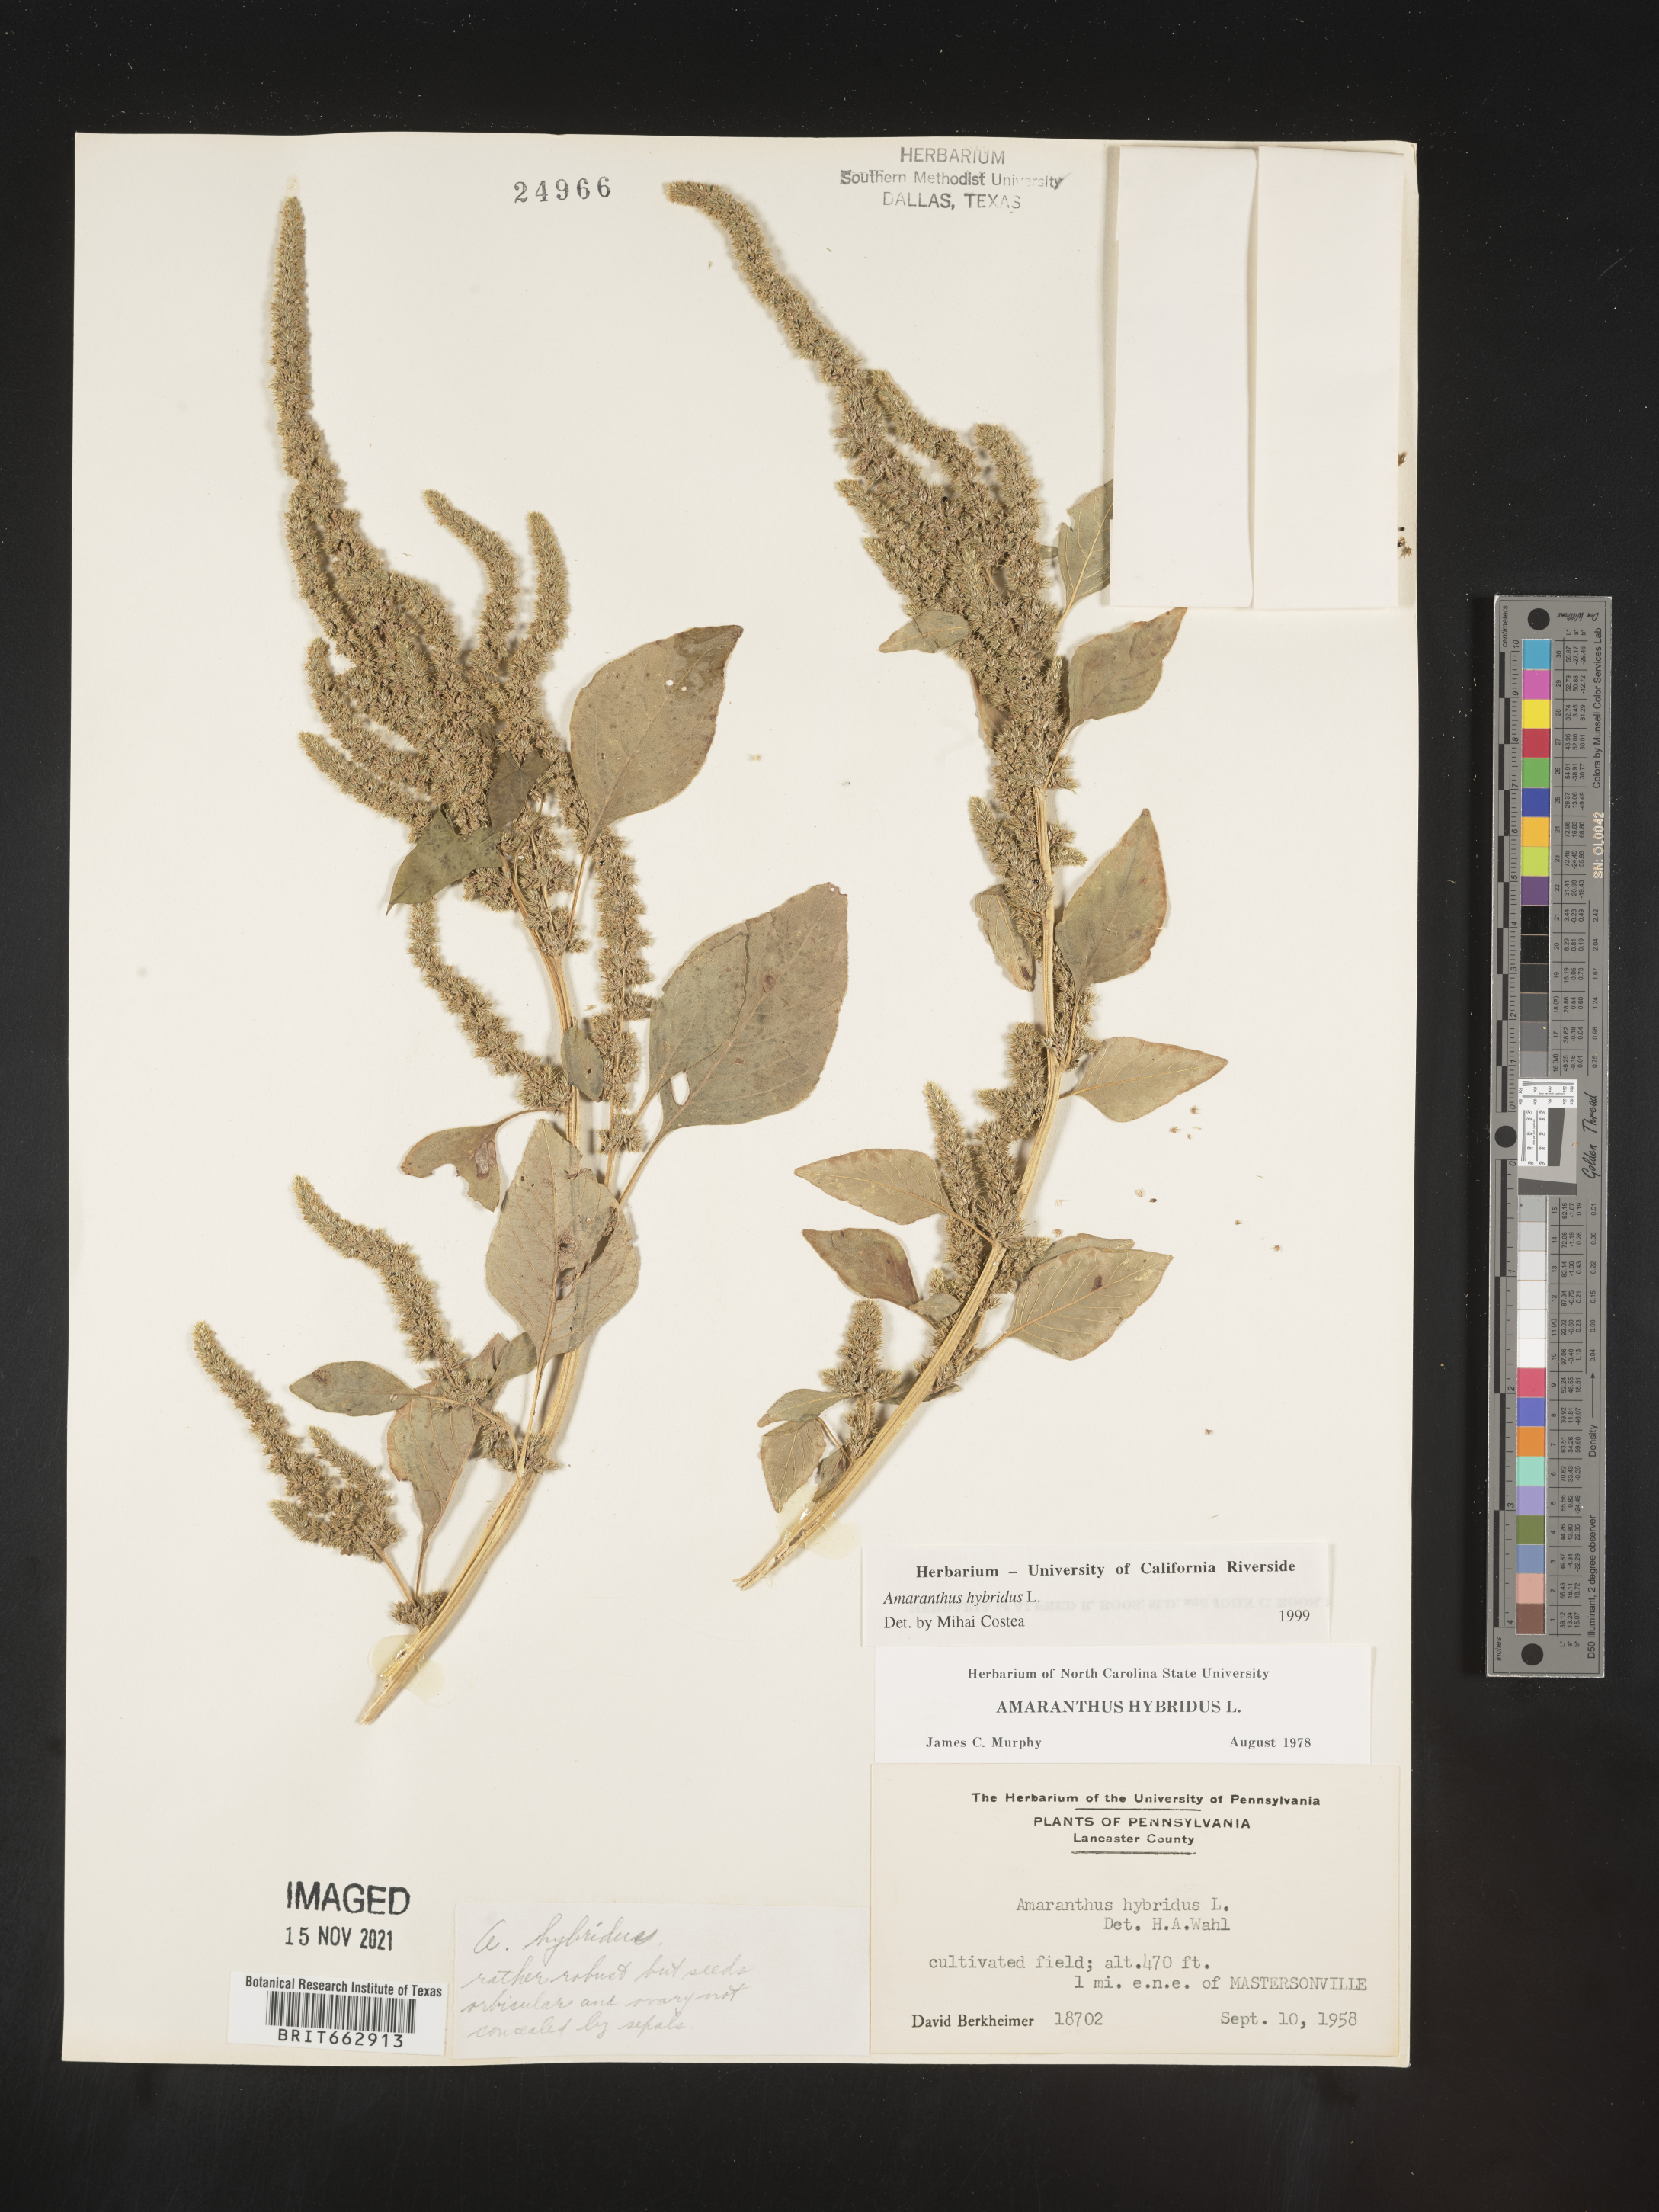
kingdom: Plantae
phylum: Tracheophyta
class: Magnoliopsida
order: Caryophyllales
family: Amaranthaceae
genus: Amaranthus
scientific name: Amaranthus hybridus
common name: Green amaranth
